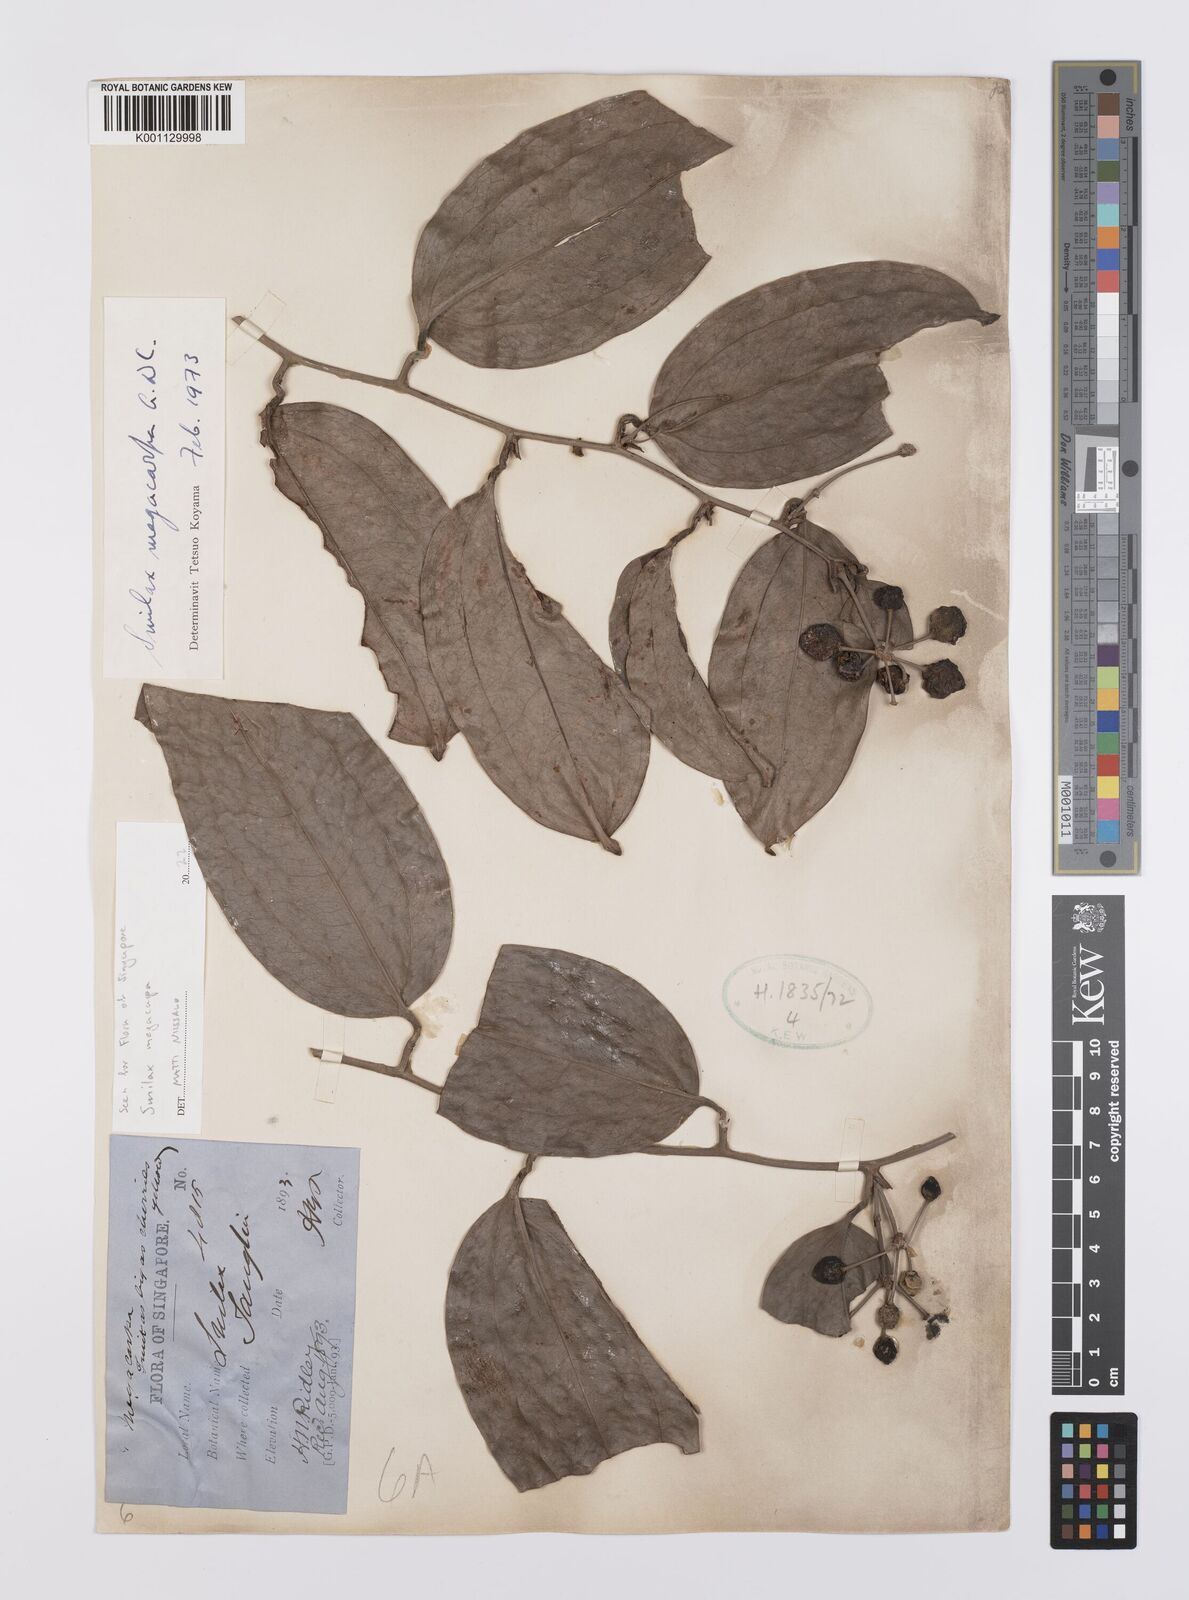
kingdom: Plantae
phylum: Tracheophyta
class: Liliopsida
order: Liliales
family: Smilacaceae
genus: Smilax
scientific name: Smilax megacarpa
